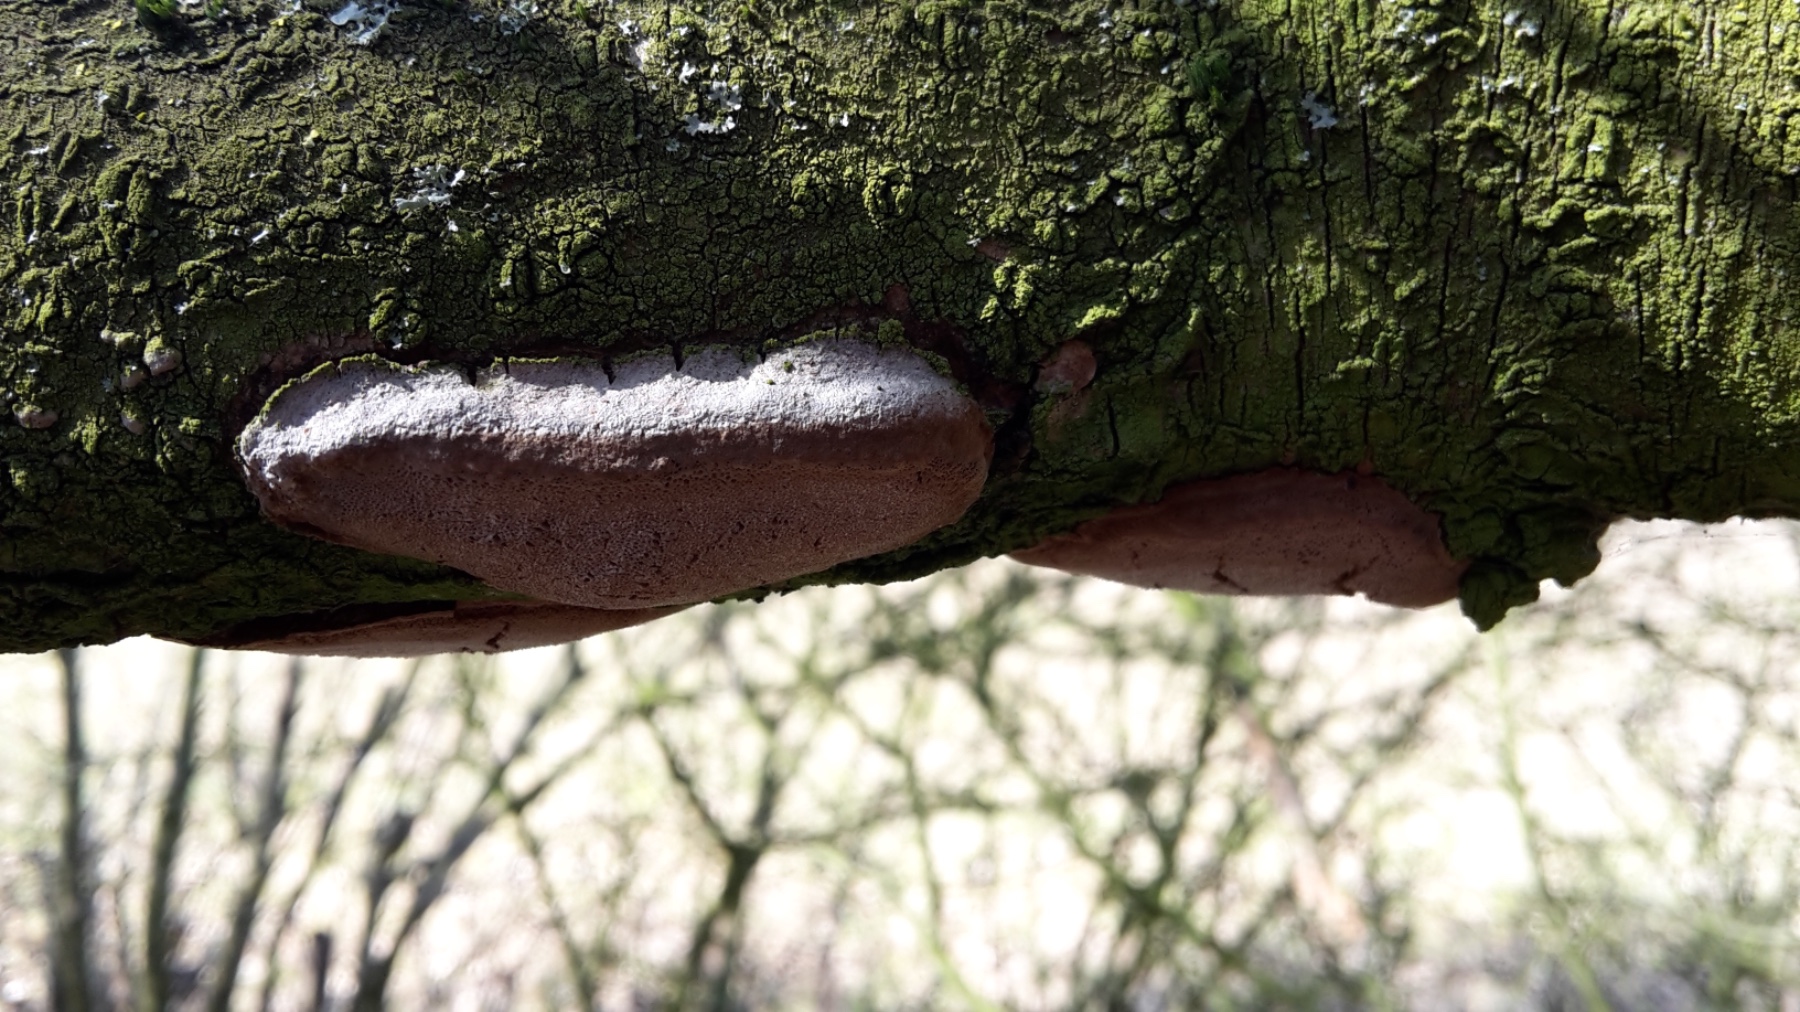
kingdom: Fungi
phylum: Basidiomycota
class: Agaricomycetes
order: Hymenochaetales
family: Hymenochaetaceae
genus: Phellinus
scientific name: Phellinus pomaceus
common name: blomme-ildporesvamp
